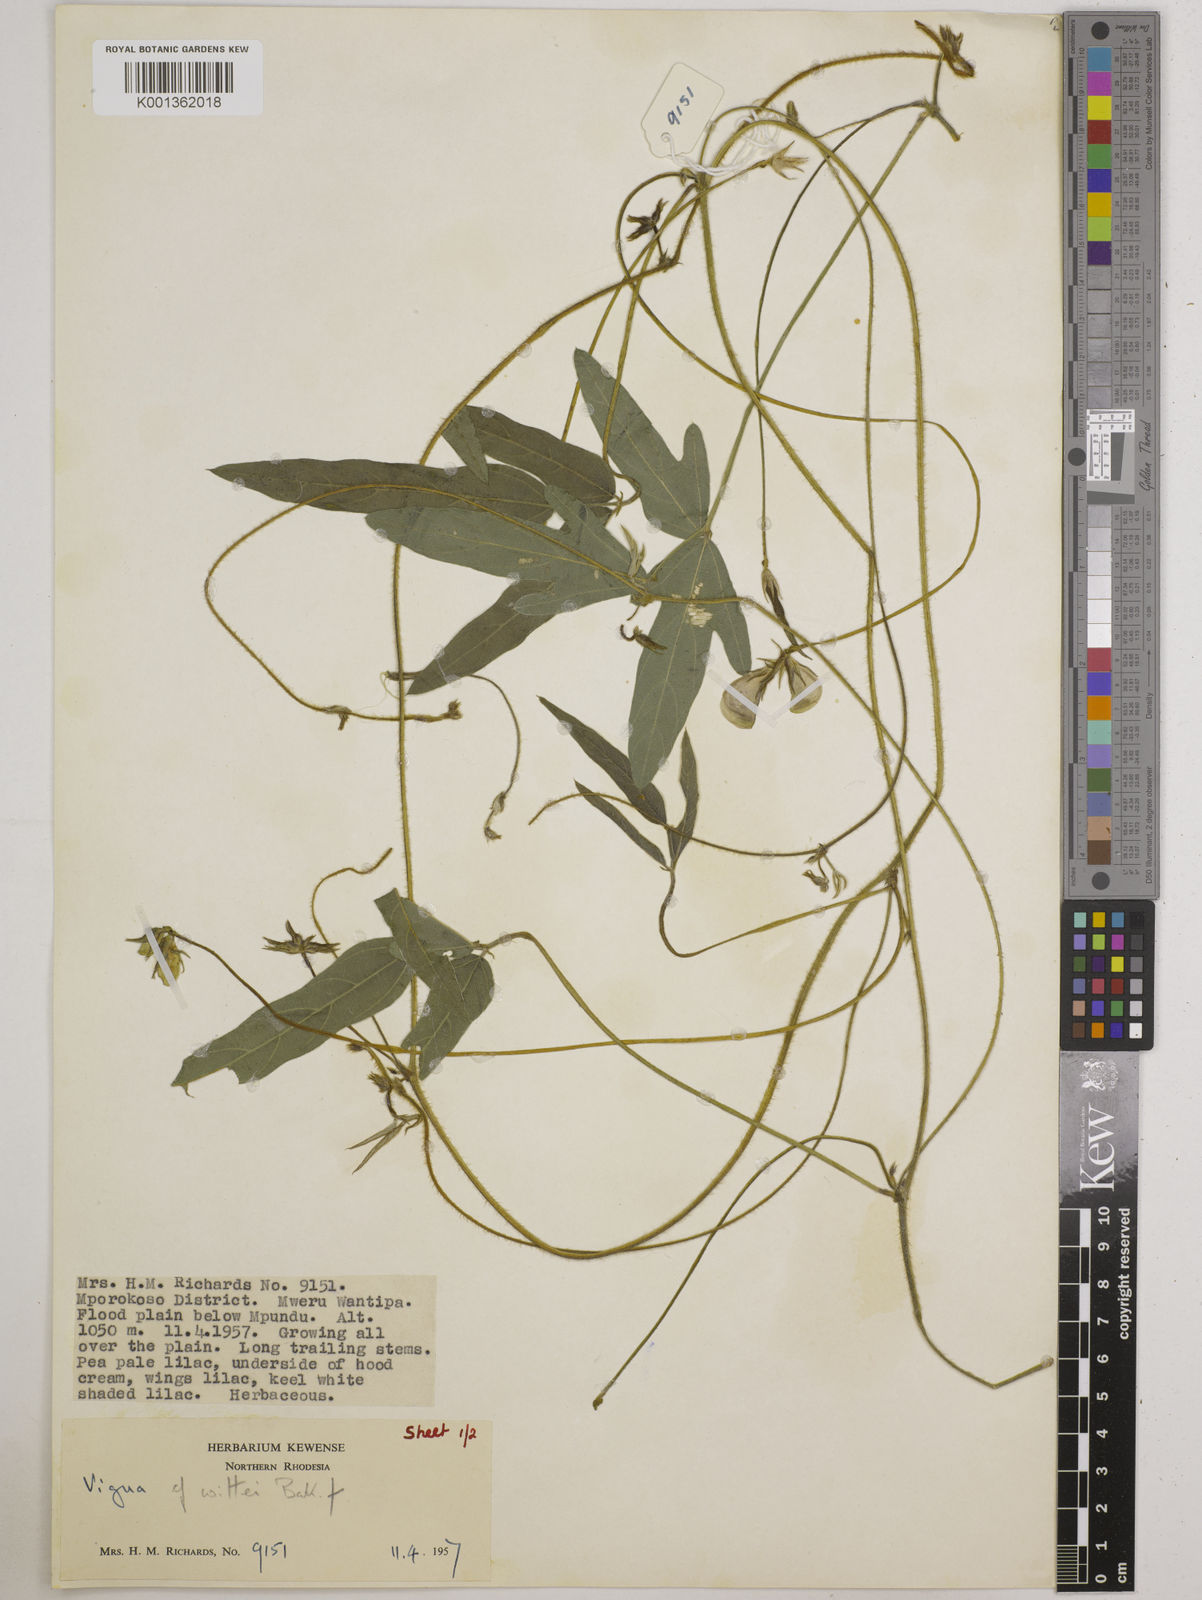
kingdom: Plantae
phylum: Tracheophyta
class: Magnoliopsida
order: Fabales
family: Fabaceae
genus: Vigna
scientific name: Vigna radicans
